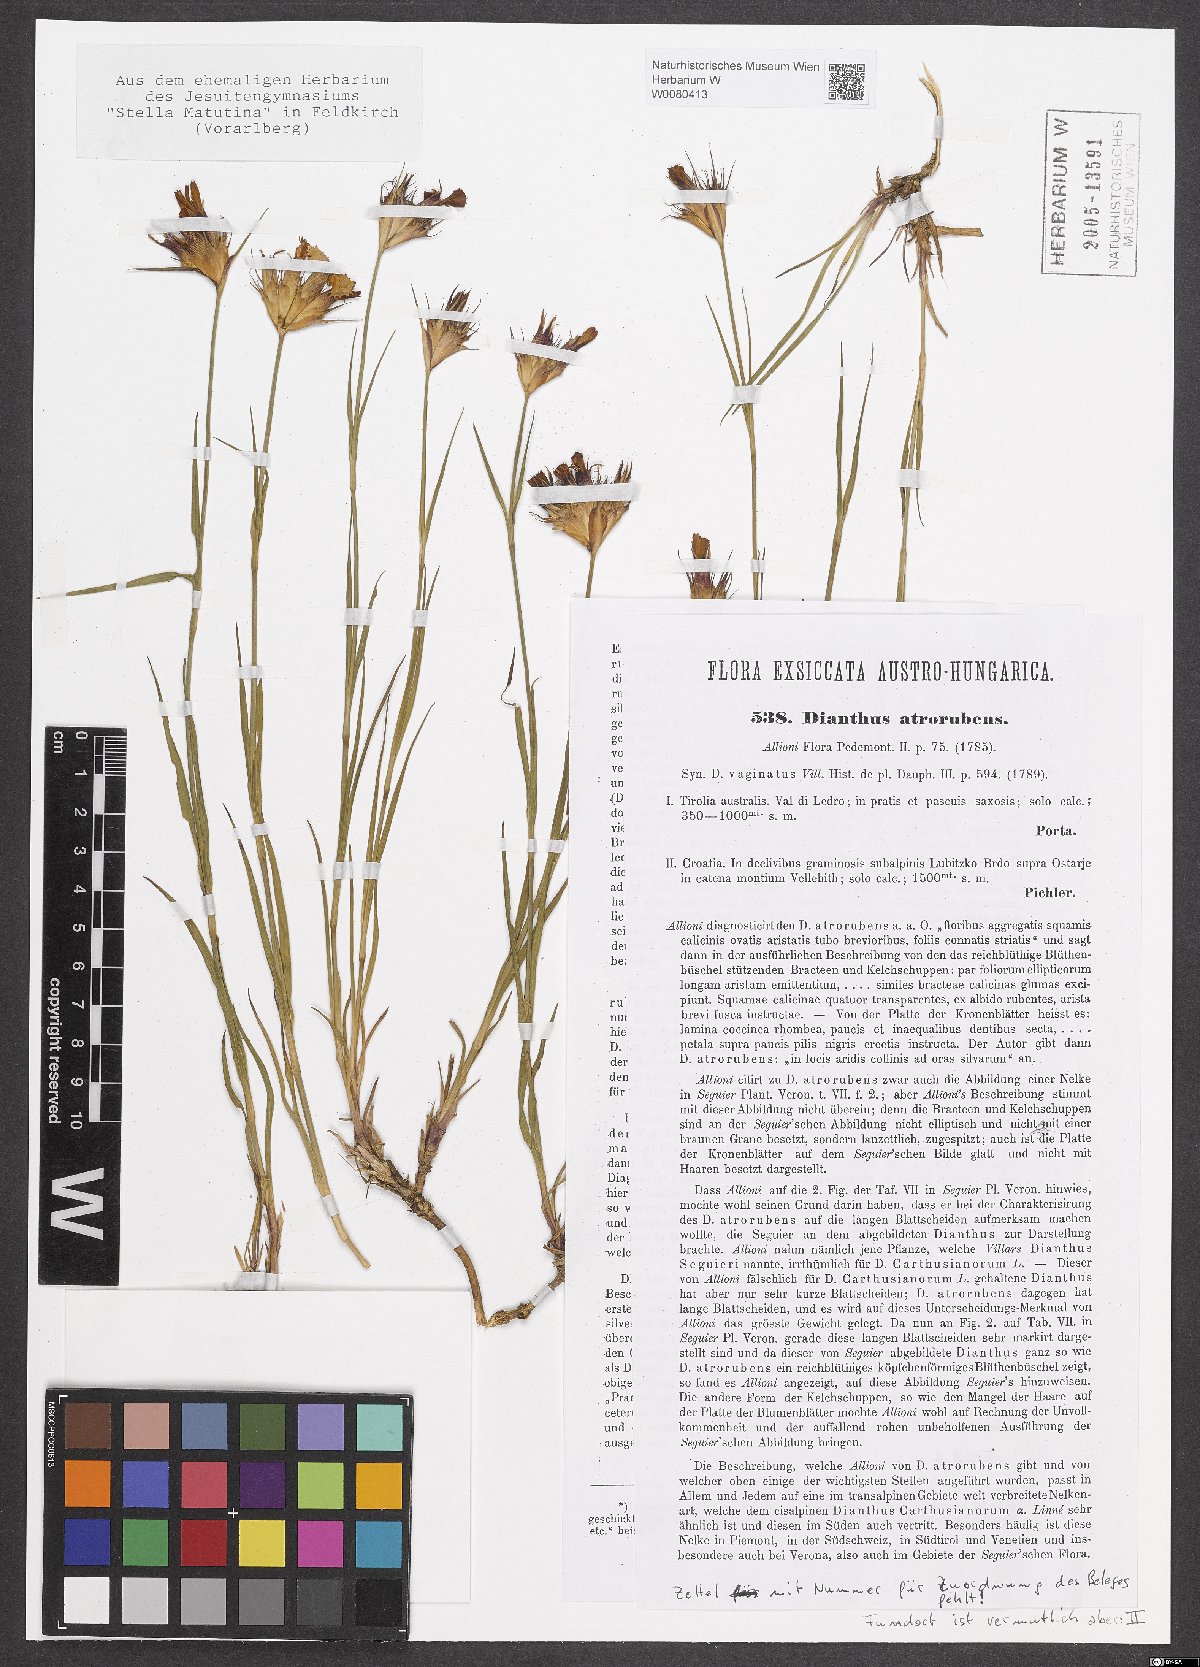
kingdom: Plantae
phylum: Tracheophyta
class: Magnoliopsida
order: Caryophyllales
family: Caryophyllaceae
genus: Dianthus
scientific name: Dianthus carthusianorum
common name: Carthusian pink
